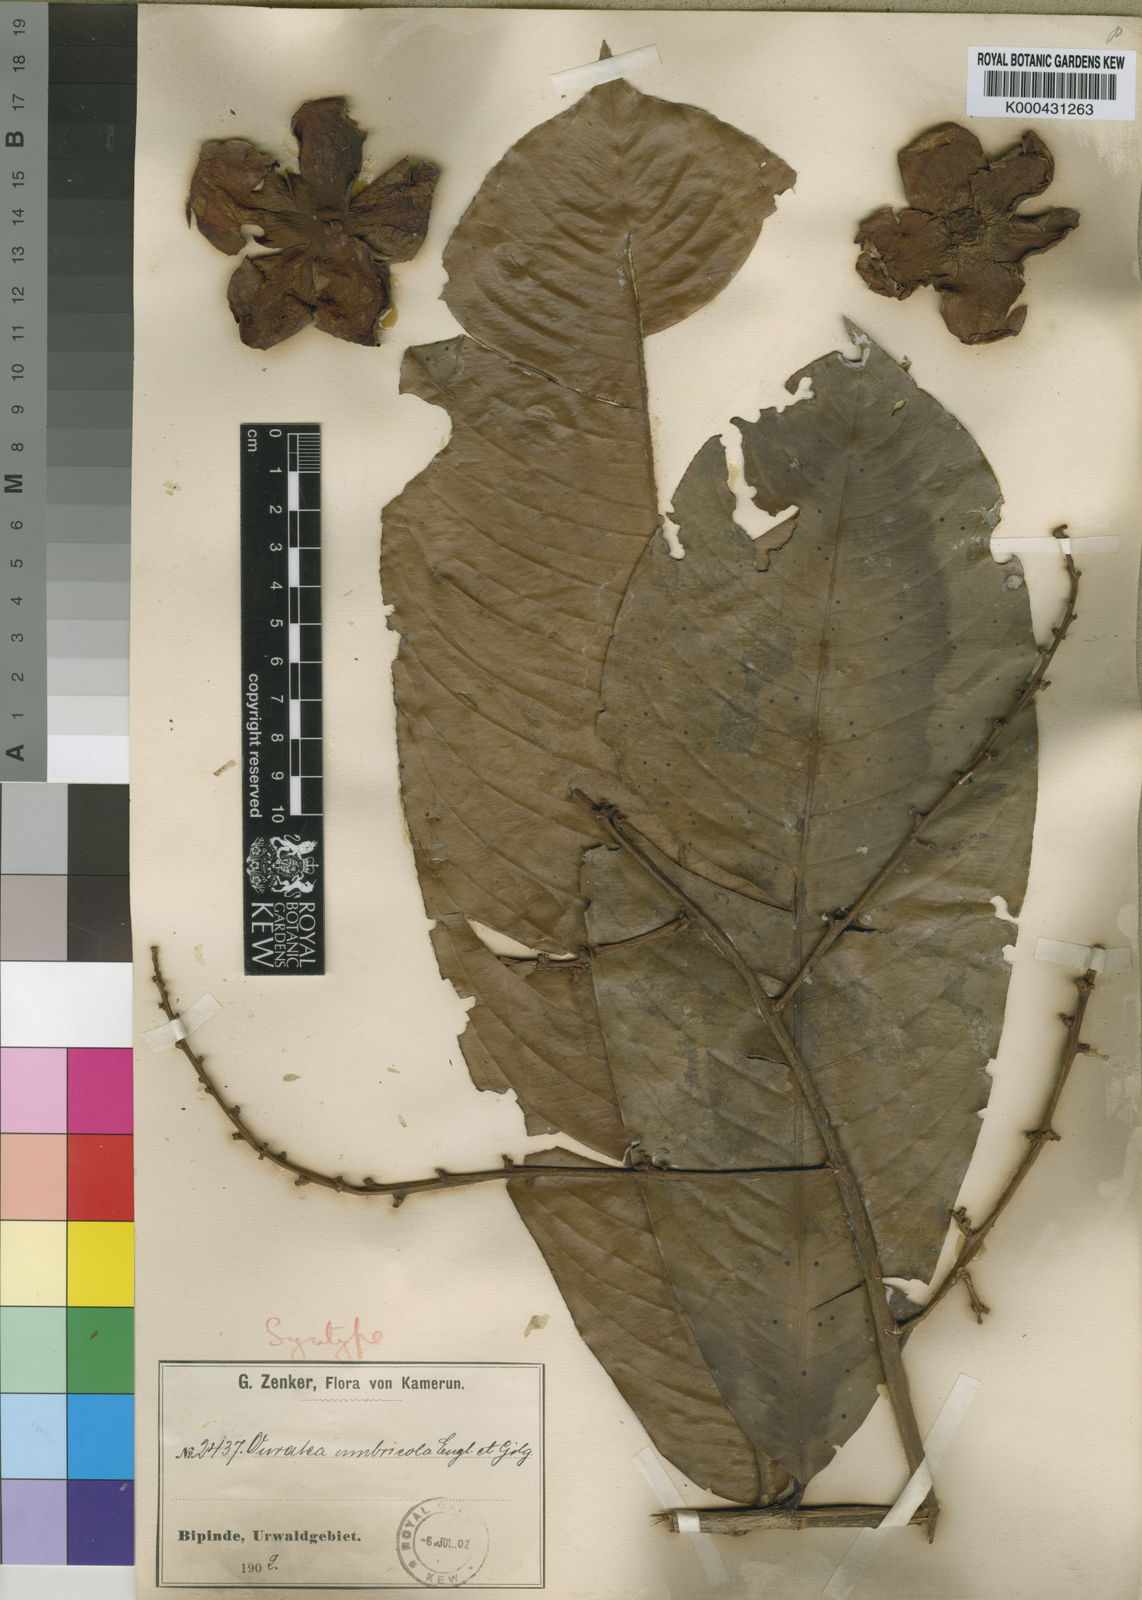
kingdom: Plantae
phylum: Tracheophyta
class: Magnoliopsida
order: Malpighiales
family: Ochnaceae
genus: Campylospermum
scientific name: Campylospermum umbricola
